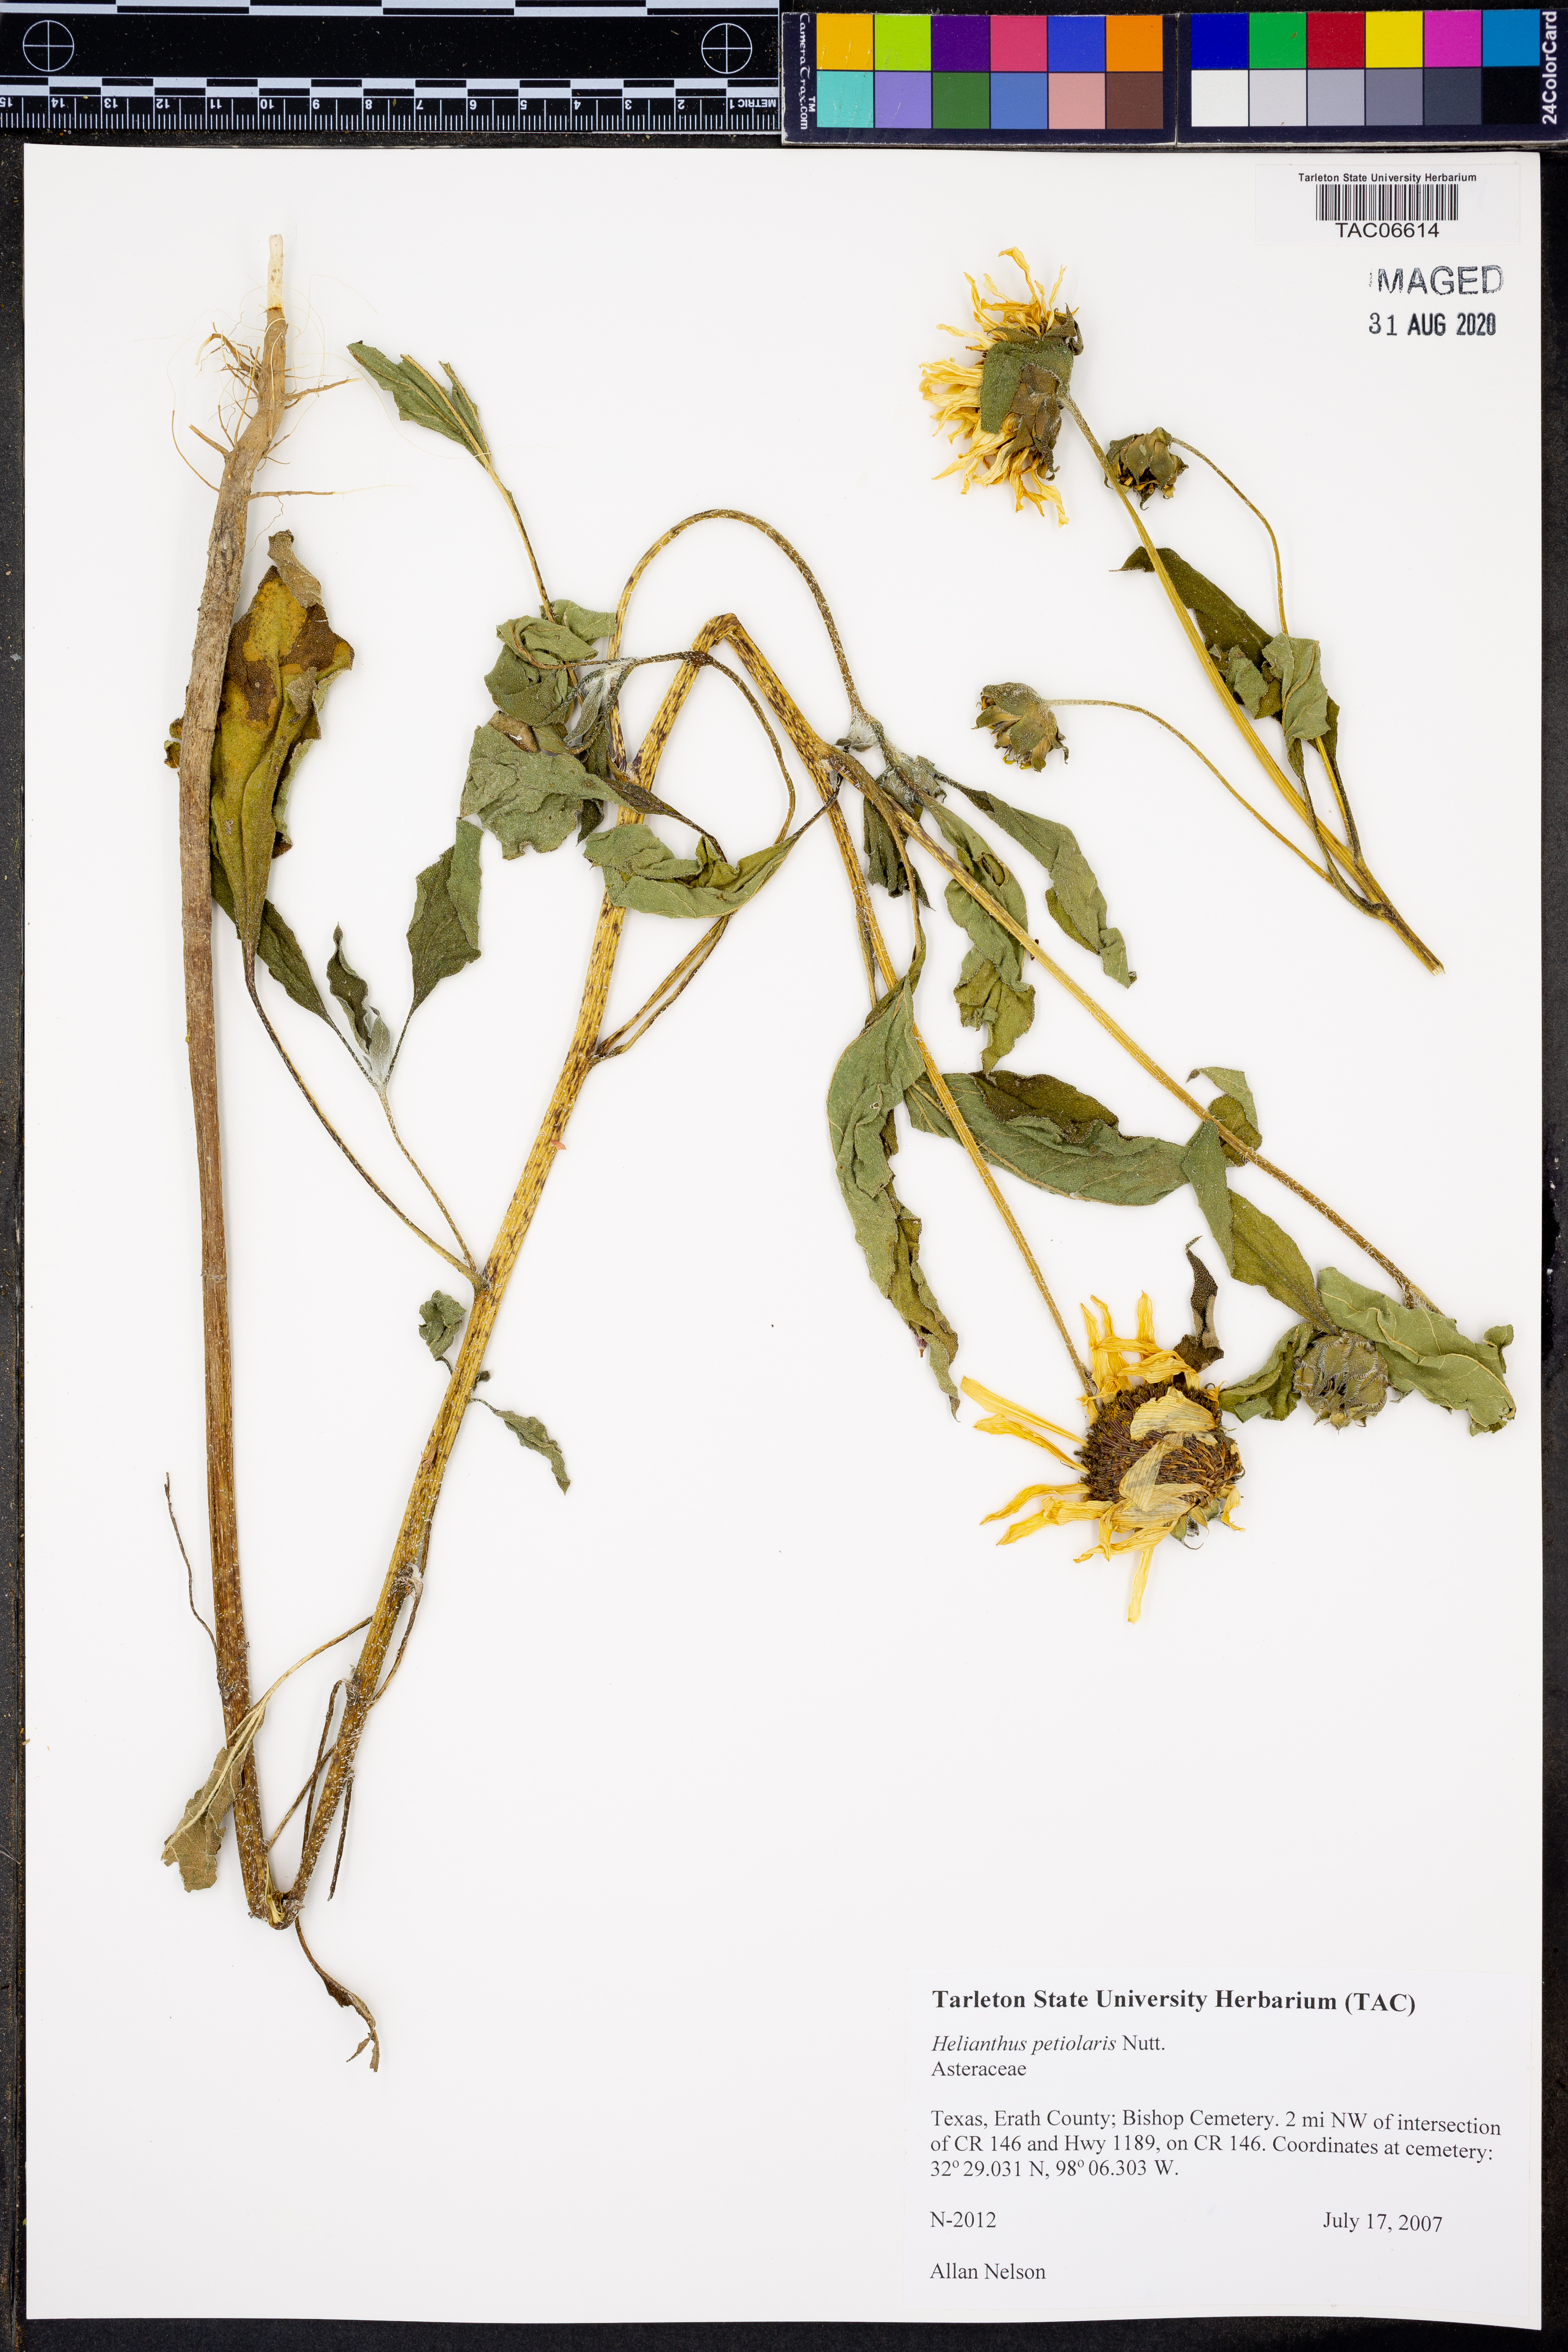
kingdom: Plantae
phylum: Tracheophyta
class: Magnoliopsida
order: Asterales
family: Asteraceae
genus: Helianthus
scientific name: Helianthus petiolaris
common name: Lesser sunflower
